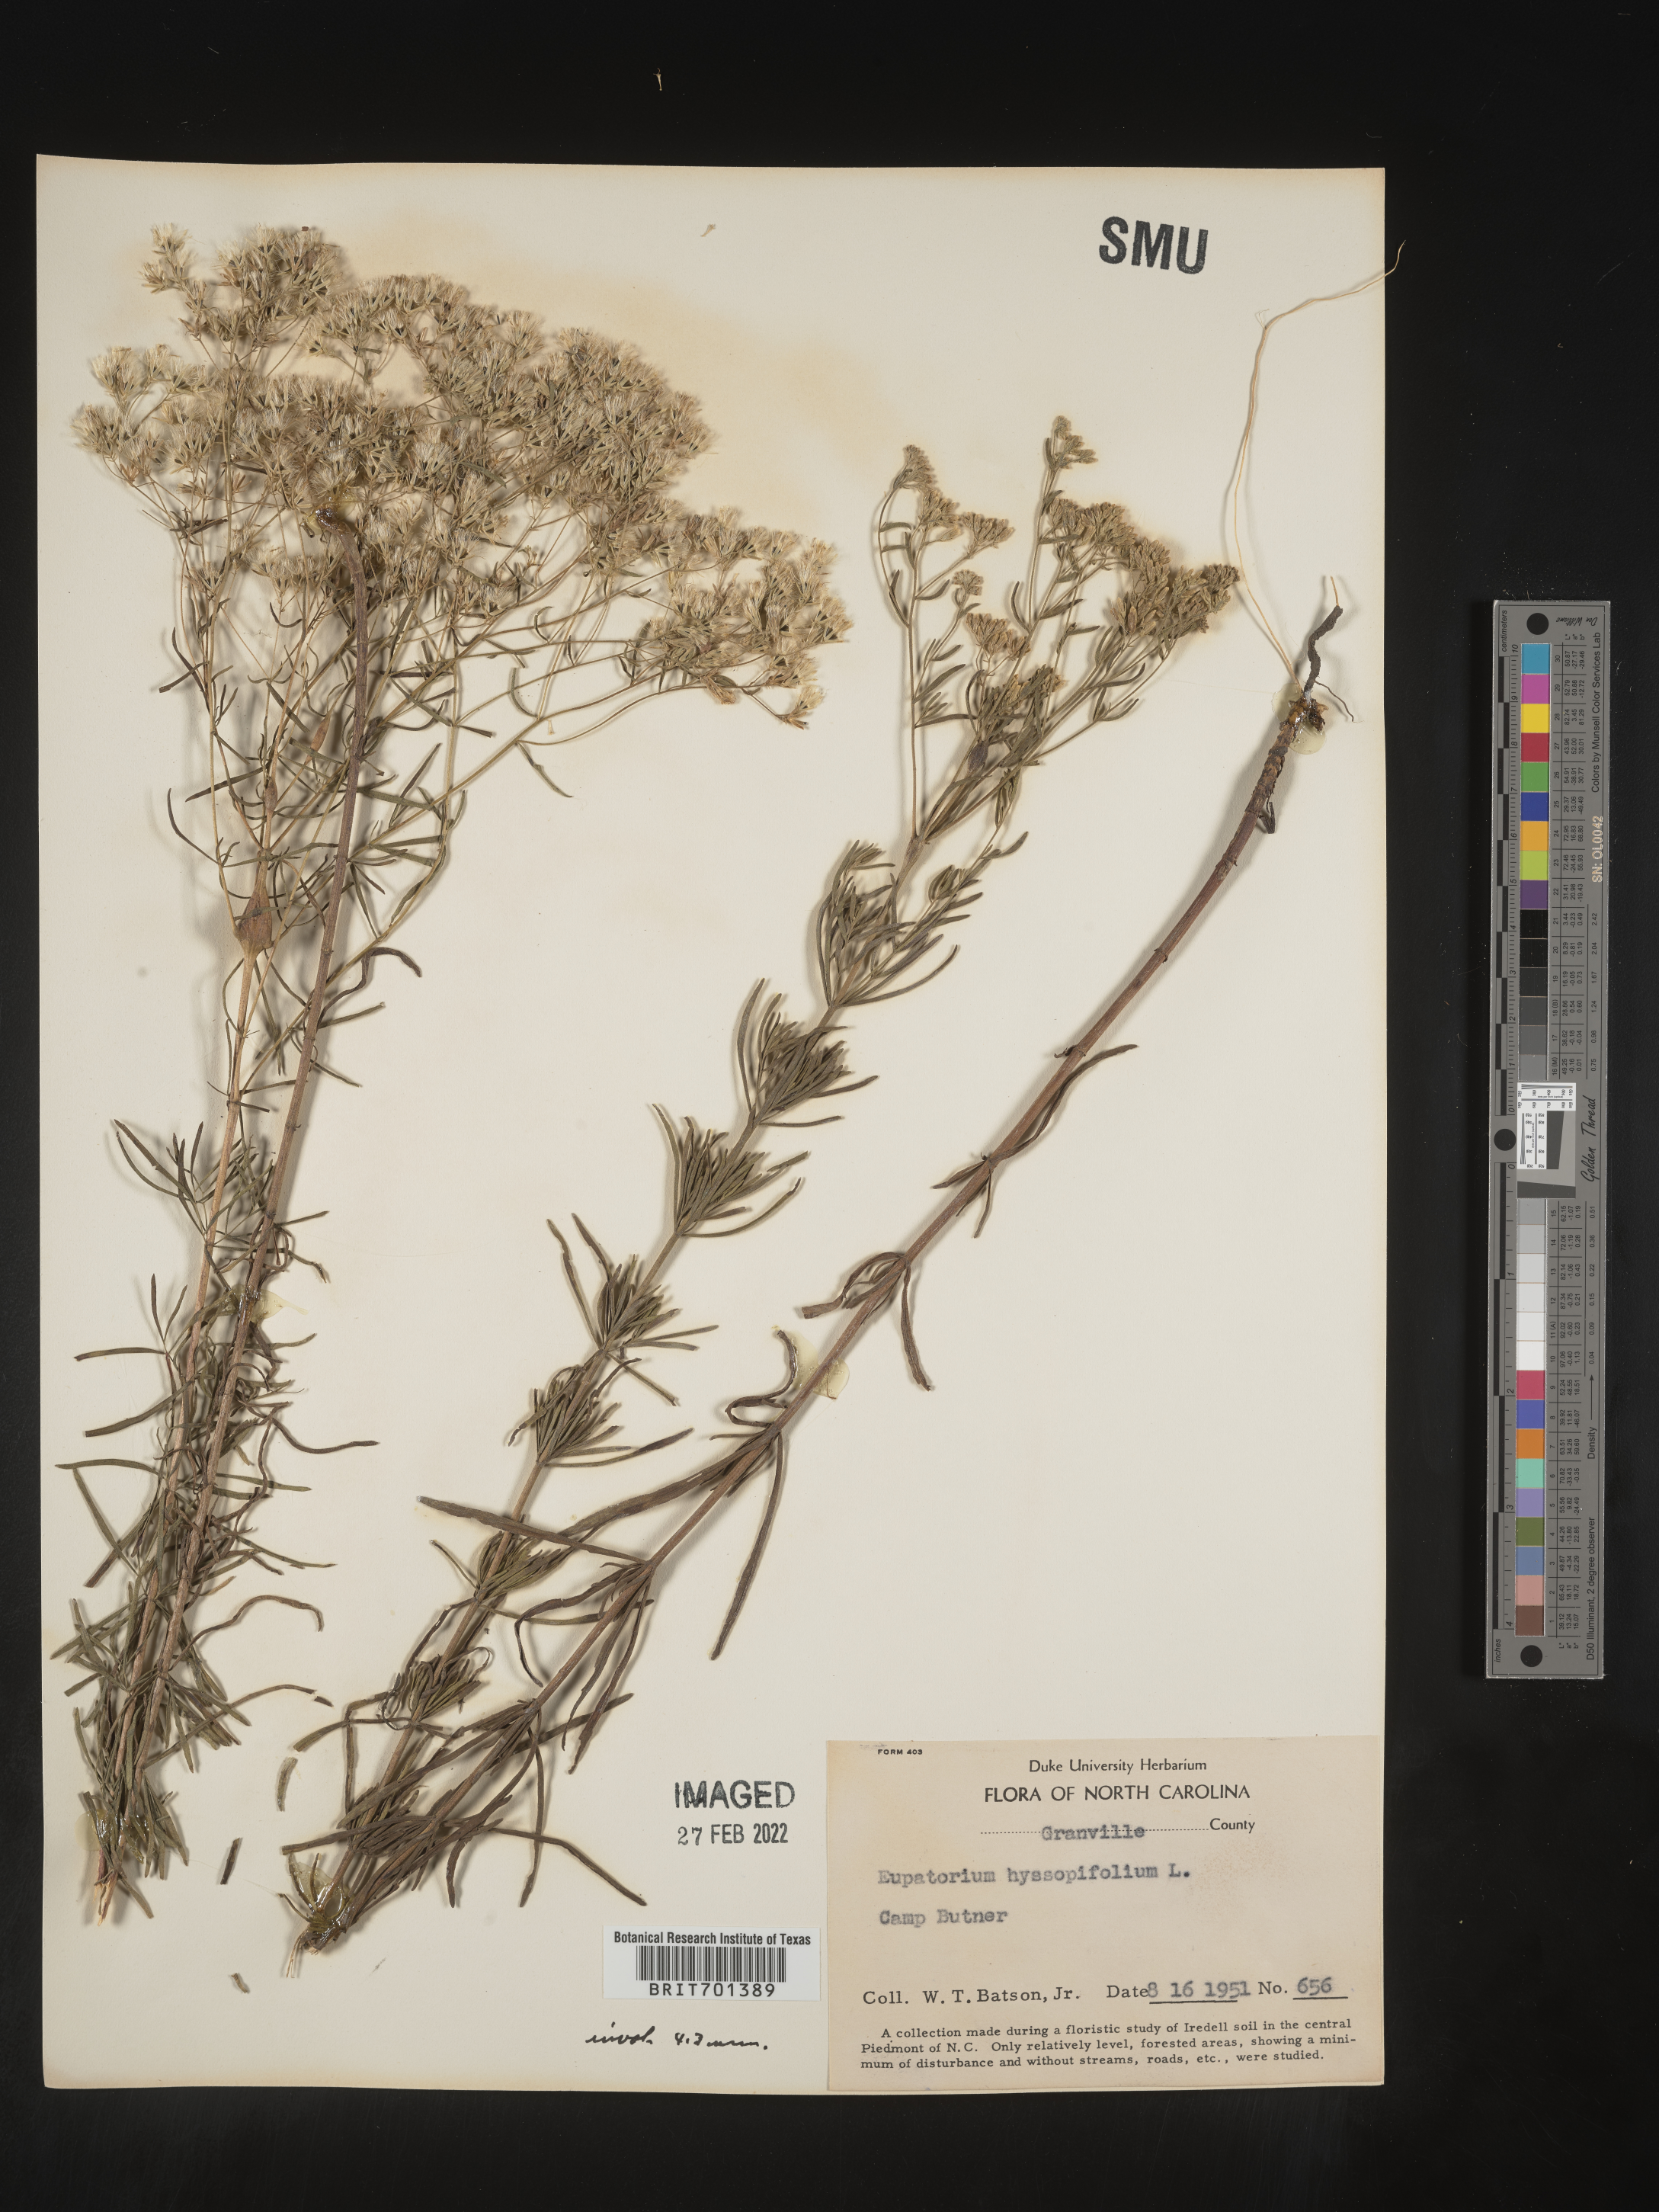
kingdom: Plantae
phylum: Tracheophyta
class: Magnoliopsida
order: Asterales
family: Asteraceae
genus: Eupatorium
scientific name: Eupatorium hyssopifolium
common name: Hyssop-leaf thoroughwort
